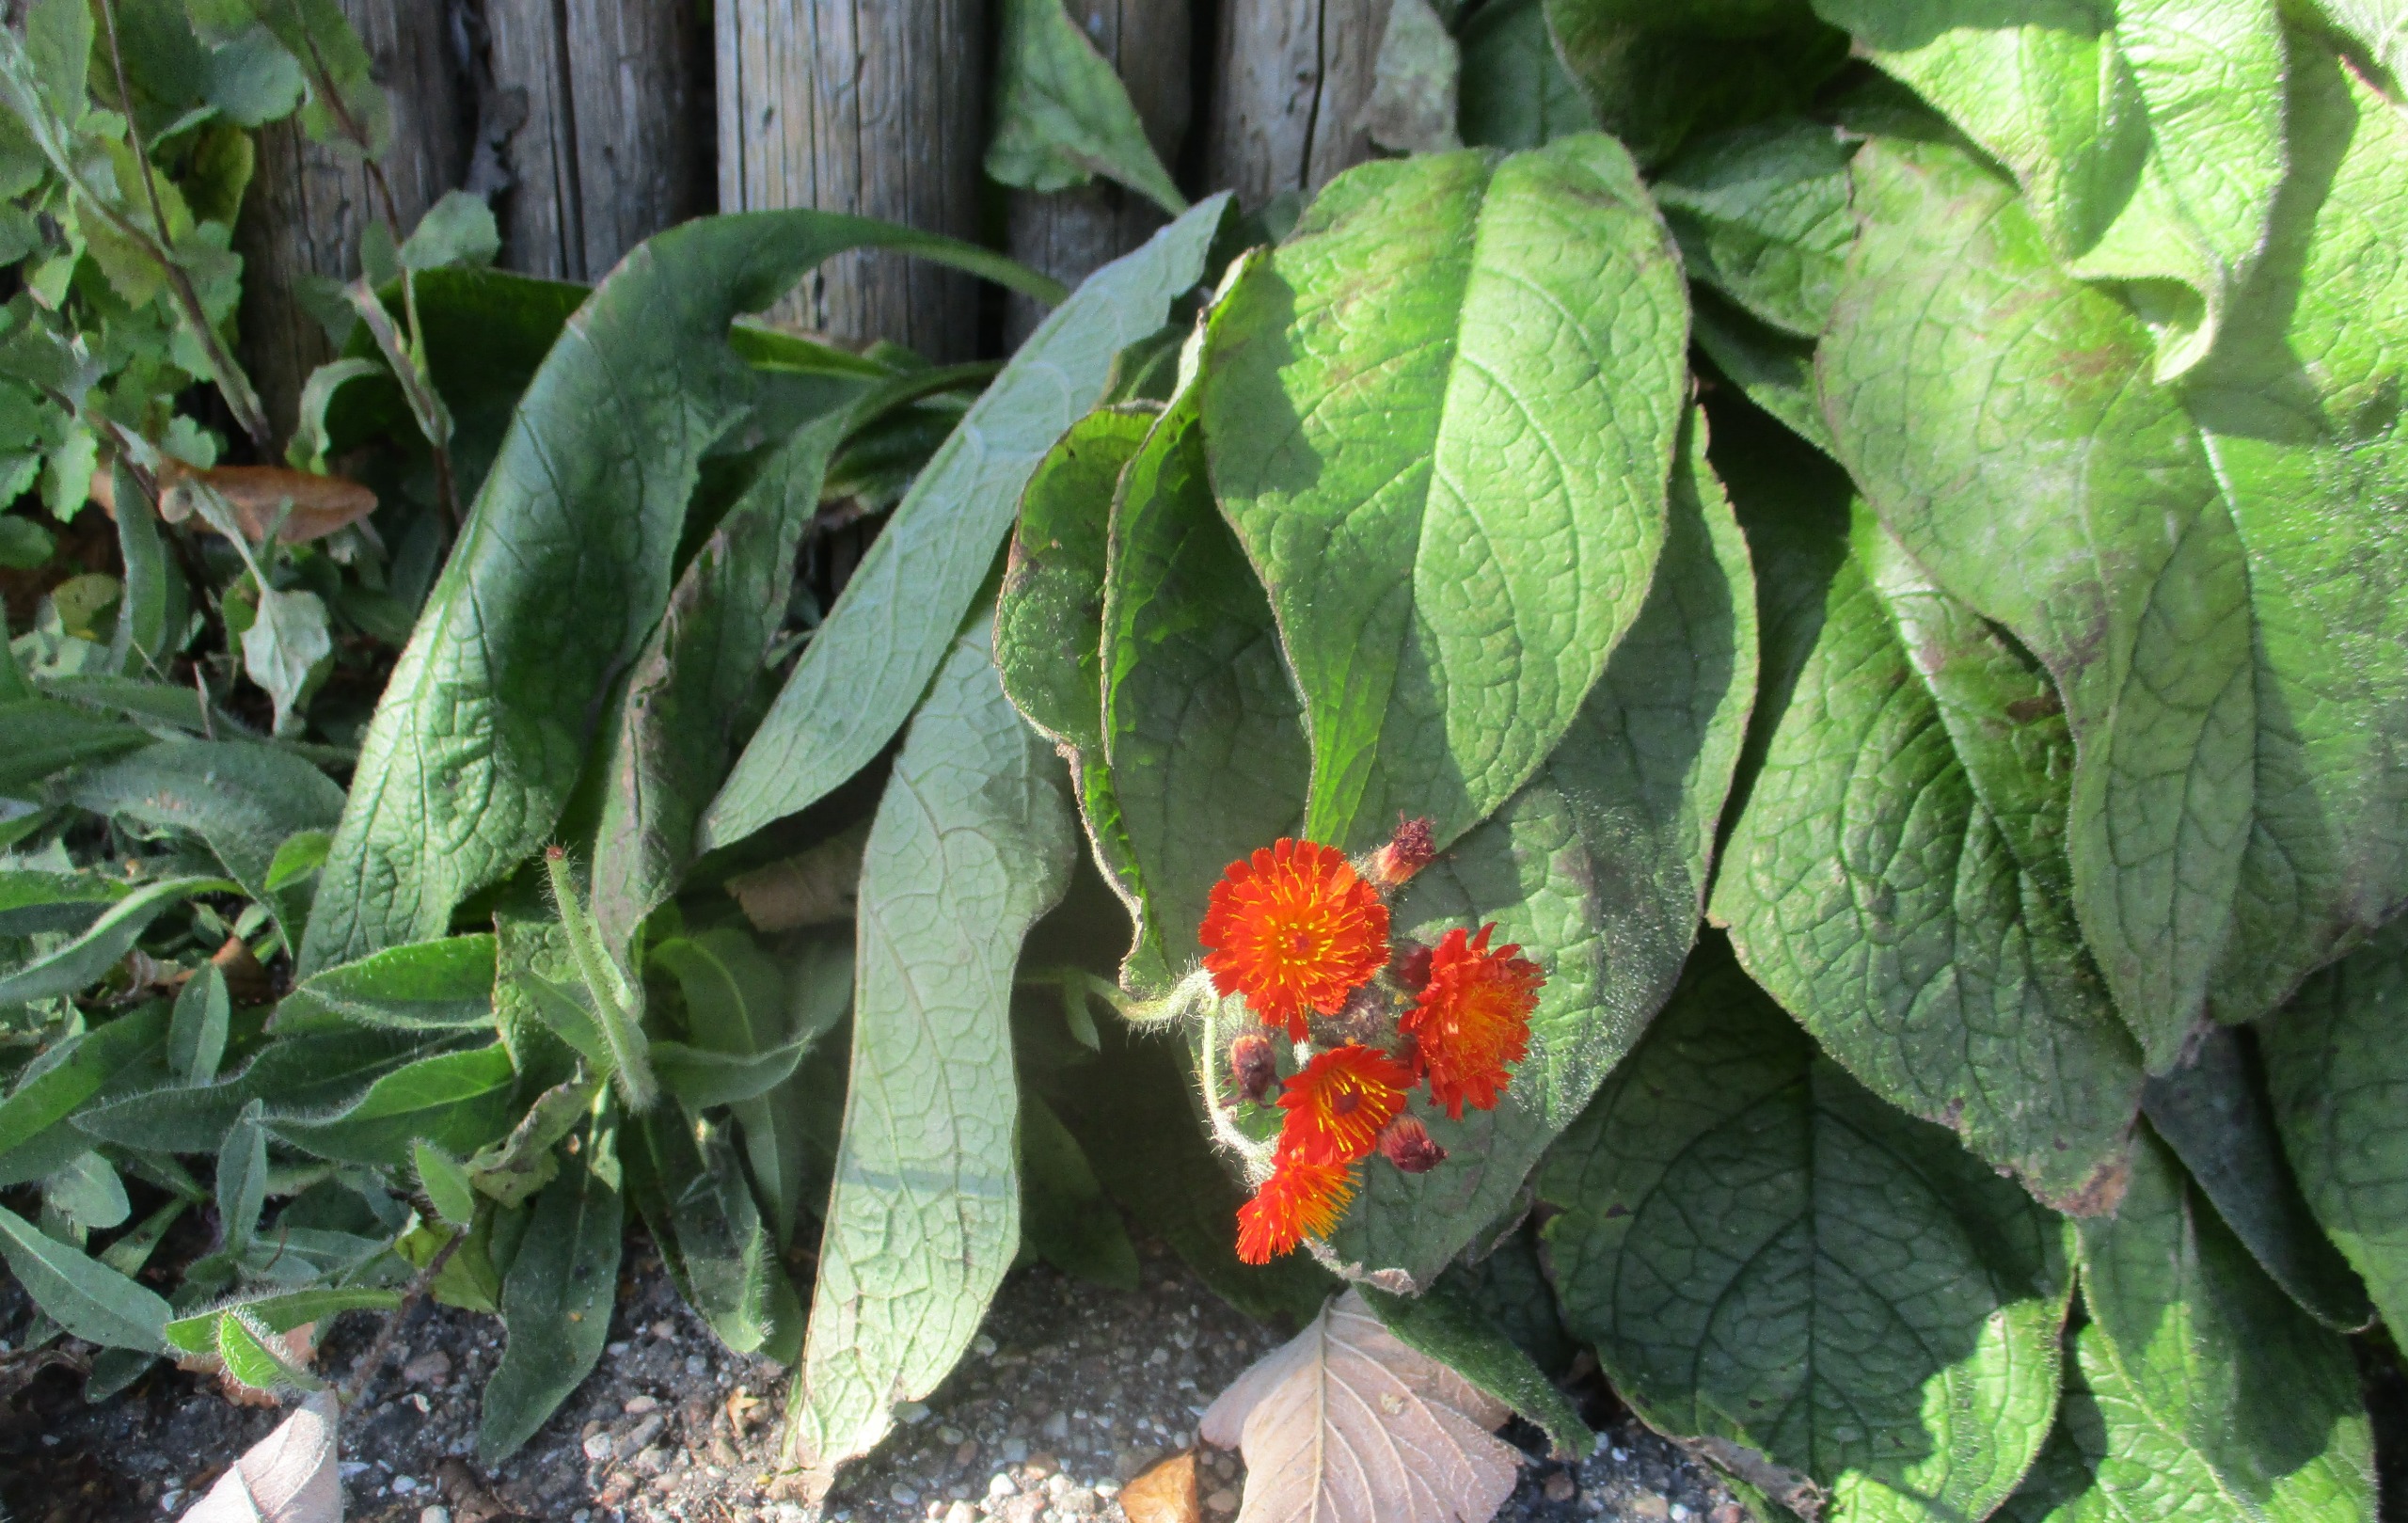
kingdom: Plantae
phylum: Tracheophyta
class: Magnoliopsida
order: Asterales
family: Asteraceae
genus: Pilosella
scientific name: Pilosella aurantiaca
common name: Pomerans-høgeurt
